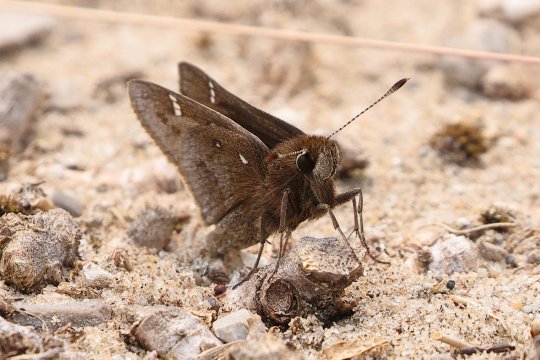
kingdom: Animalia
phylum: Arthropoda
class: Insecta
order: Lepidoptera
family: Hesperiidae
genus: Atrytonopsis
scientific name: Atrytonopsis hianna
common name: Dusted Skipper
